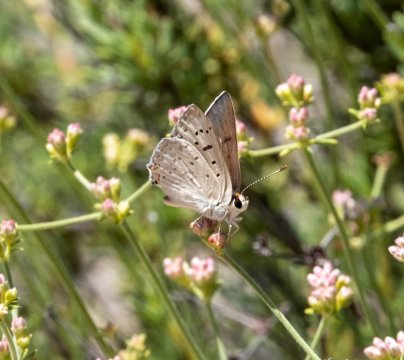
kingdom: Animalia
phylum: Arthropoda
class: Insecta
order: Lepidoptera
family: Lycaenidae
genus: Lycaena
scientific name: Lycaena xanthoides
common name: Great Copper
